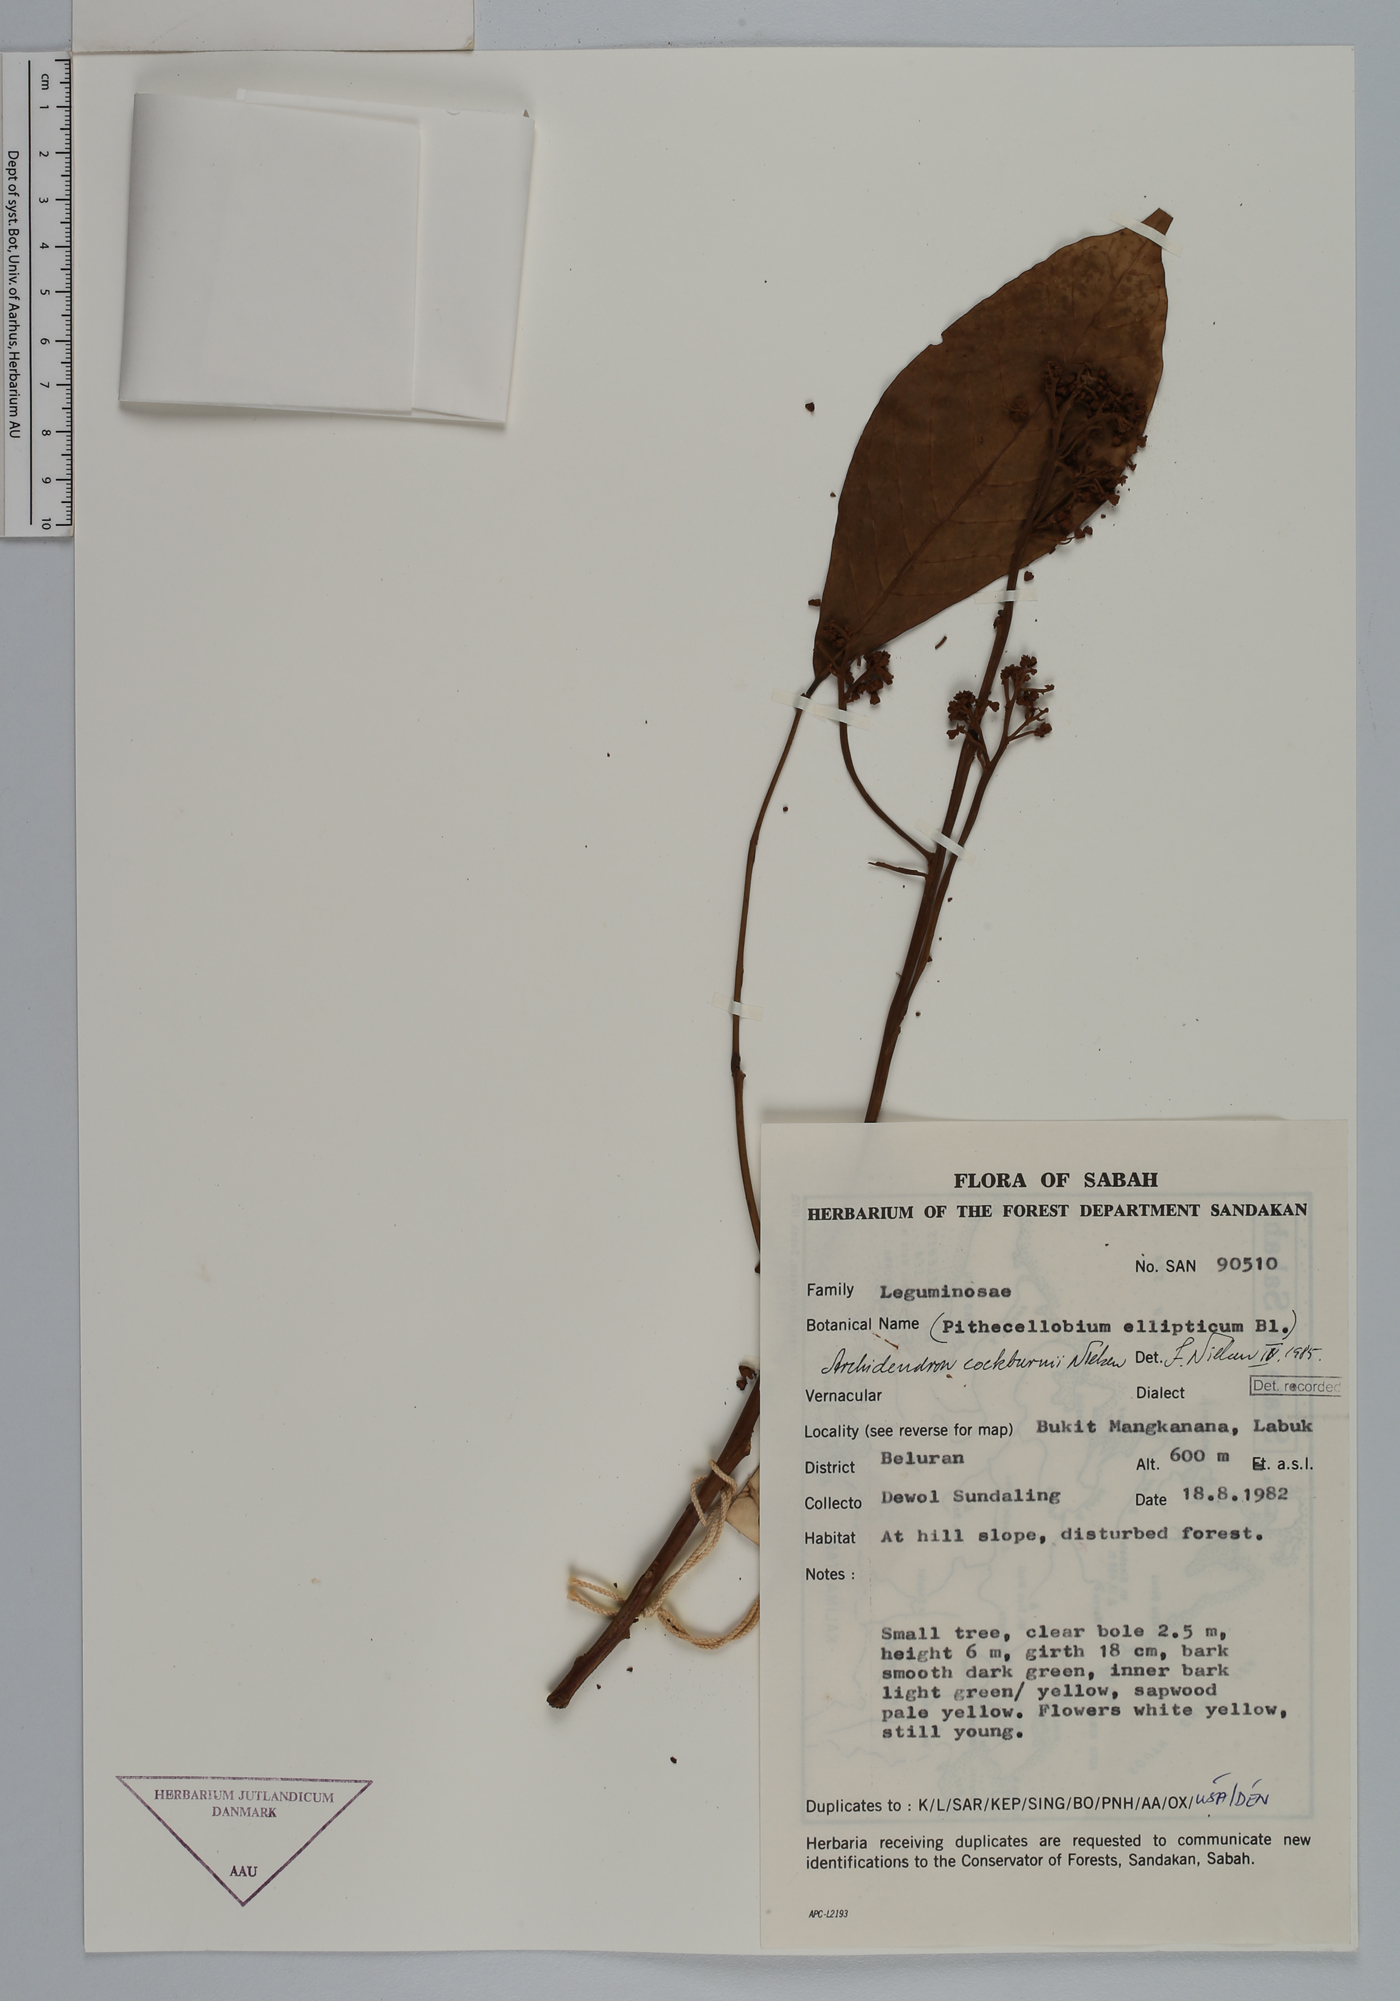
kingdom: Plantae
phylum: Tracheophyta
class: Magnoliopsida
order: Fabales
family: Fabaceae
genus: Archidendron
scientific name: Archidendron cockburnii
